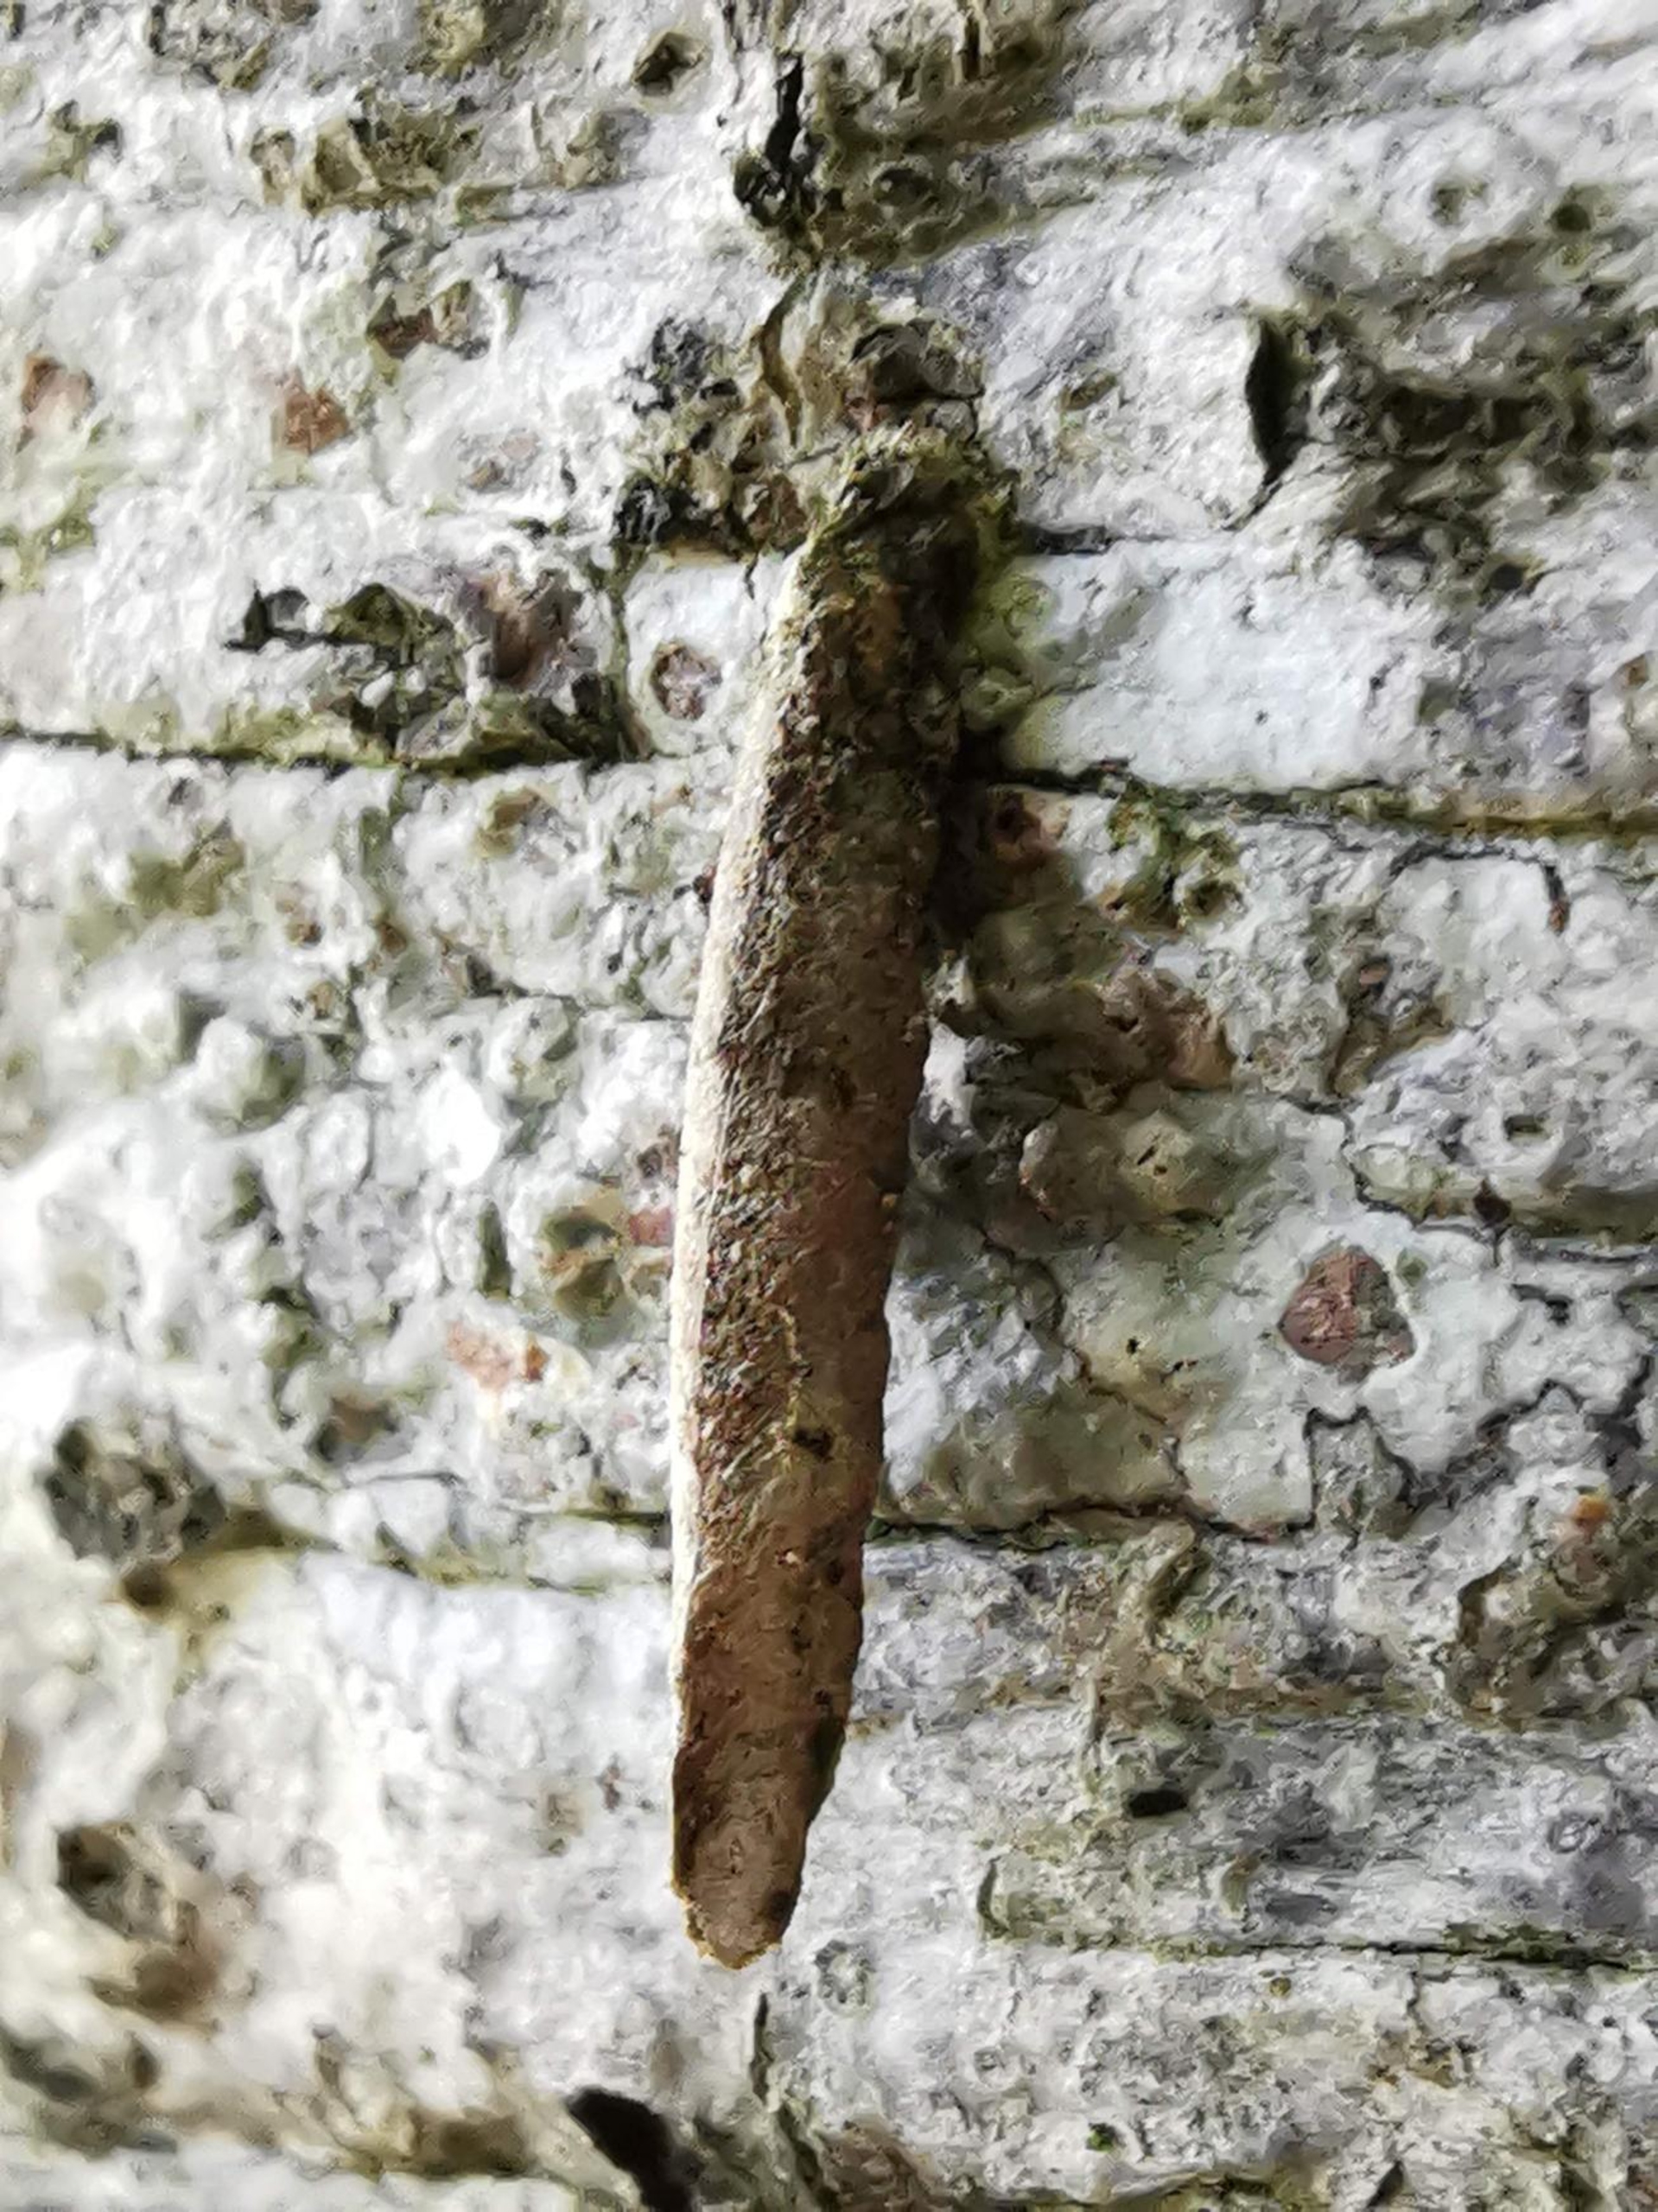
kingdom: Animalia
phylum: Arthropoda
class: Insecta
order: Lepidoptera
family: Psychidae
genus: Taleporia
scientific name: Taleporia tubulosa
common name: Cigarsækbærer
